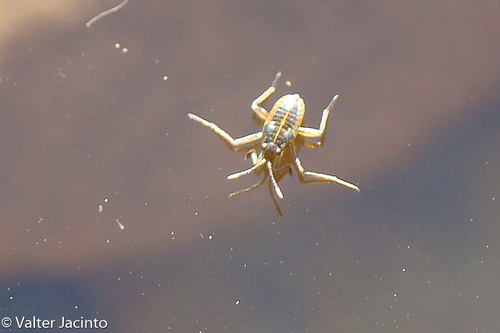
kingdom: Animalia
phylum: Arthropoda
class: Insecta
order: Hemiptera
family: Veliidae
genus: Velia
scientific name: Velia
